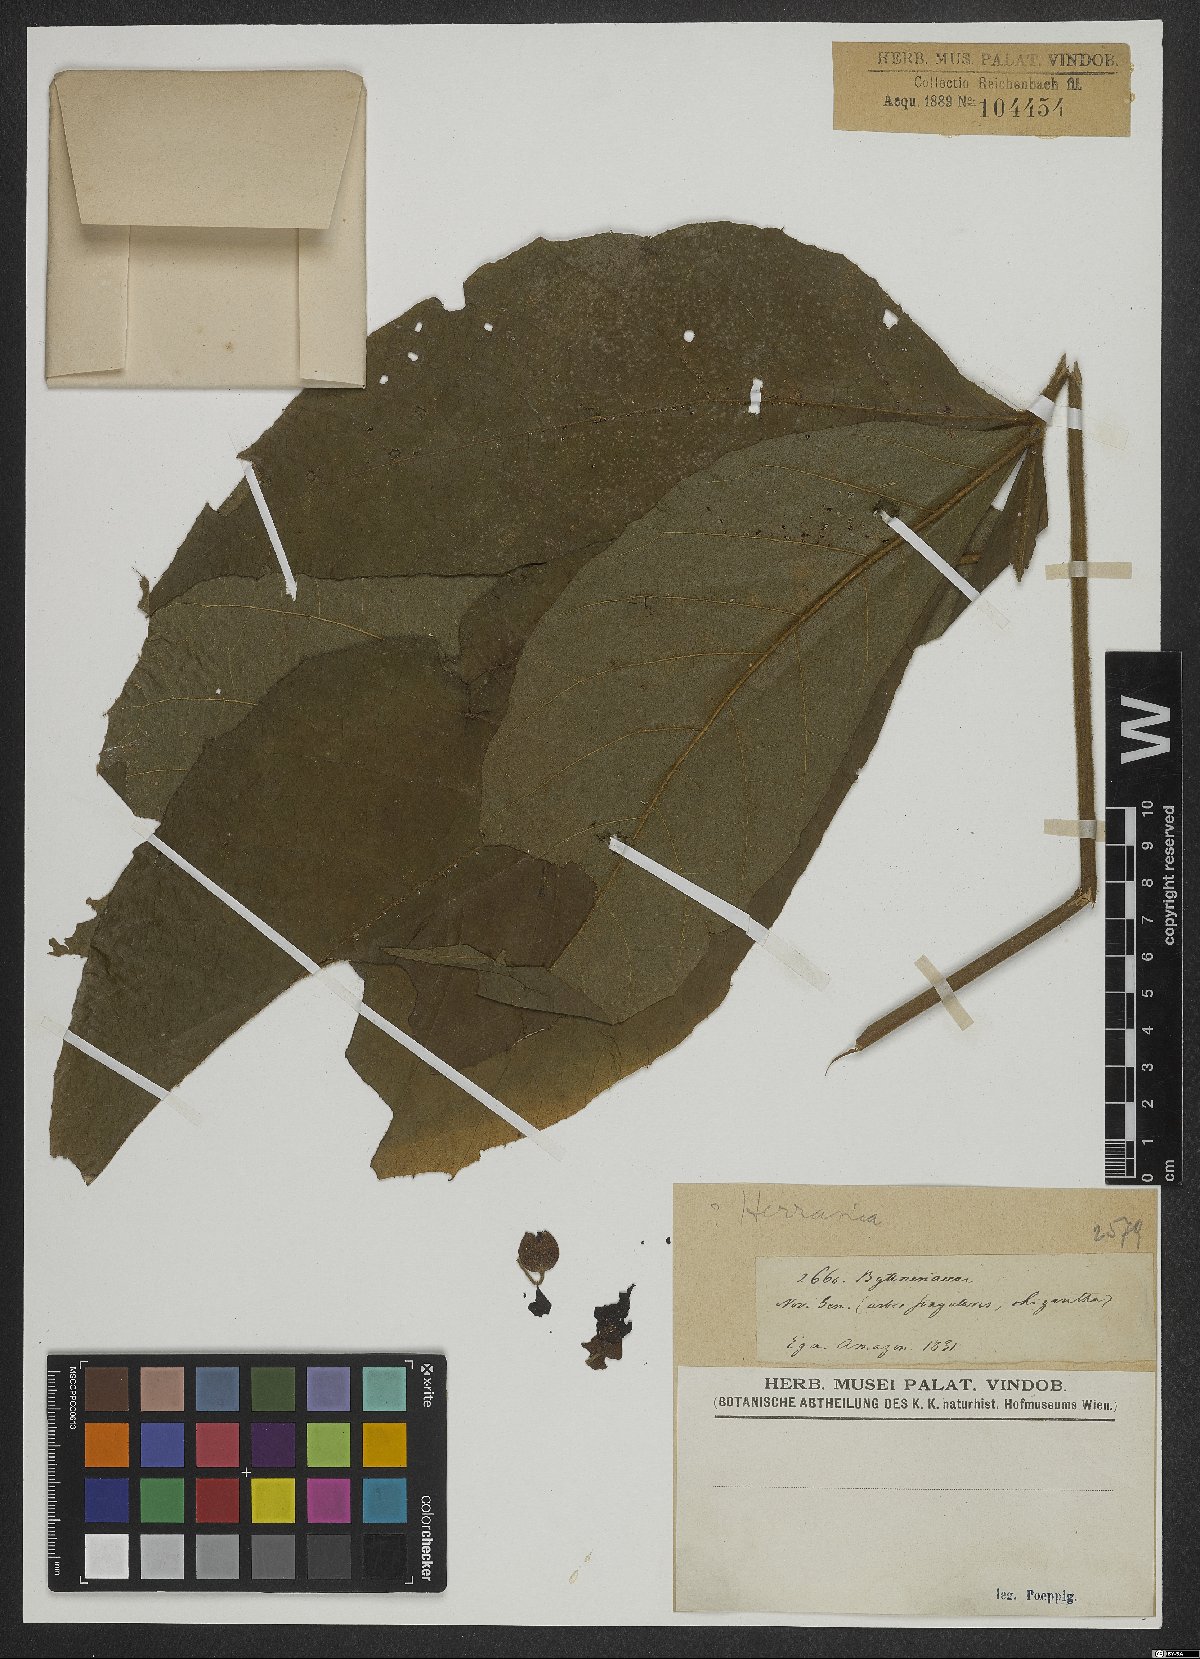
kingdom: Plantae
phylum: Tracheophyta
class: Magnoliopsida
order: Malvales
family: Malvaceae
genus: Herrania
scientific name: Herrania
